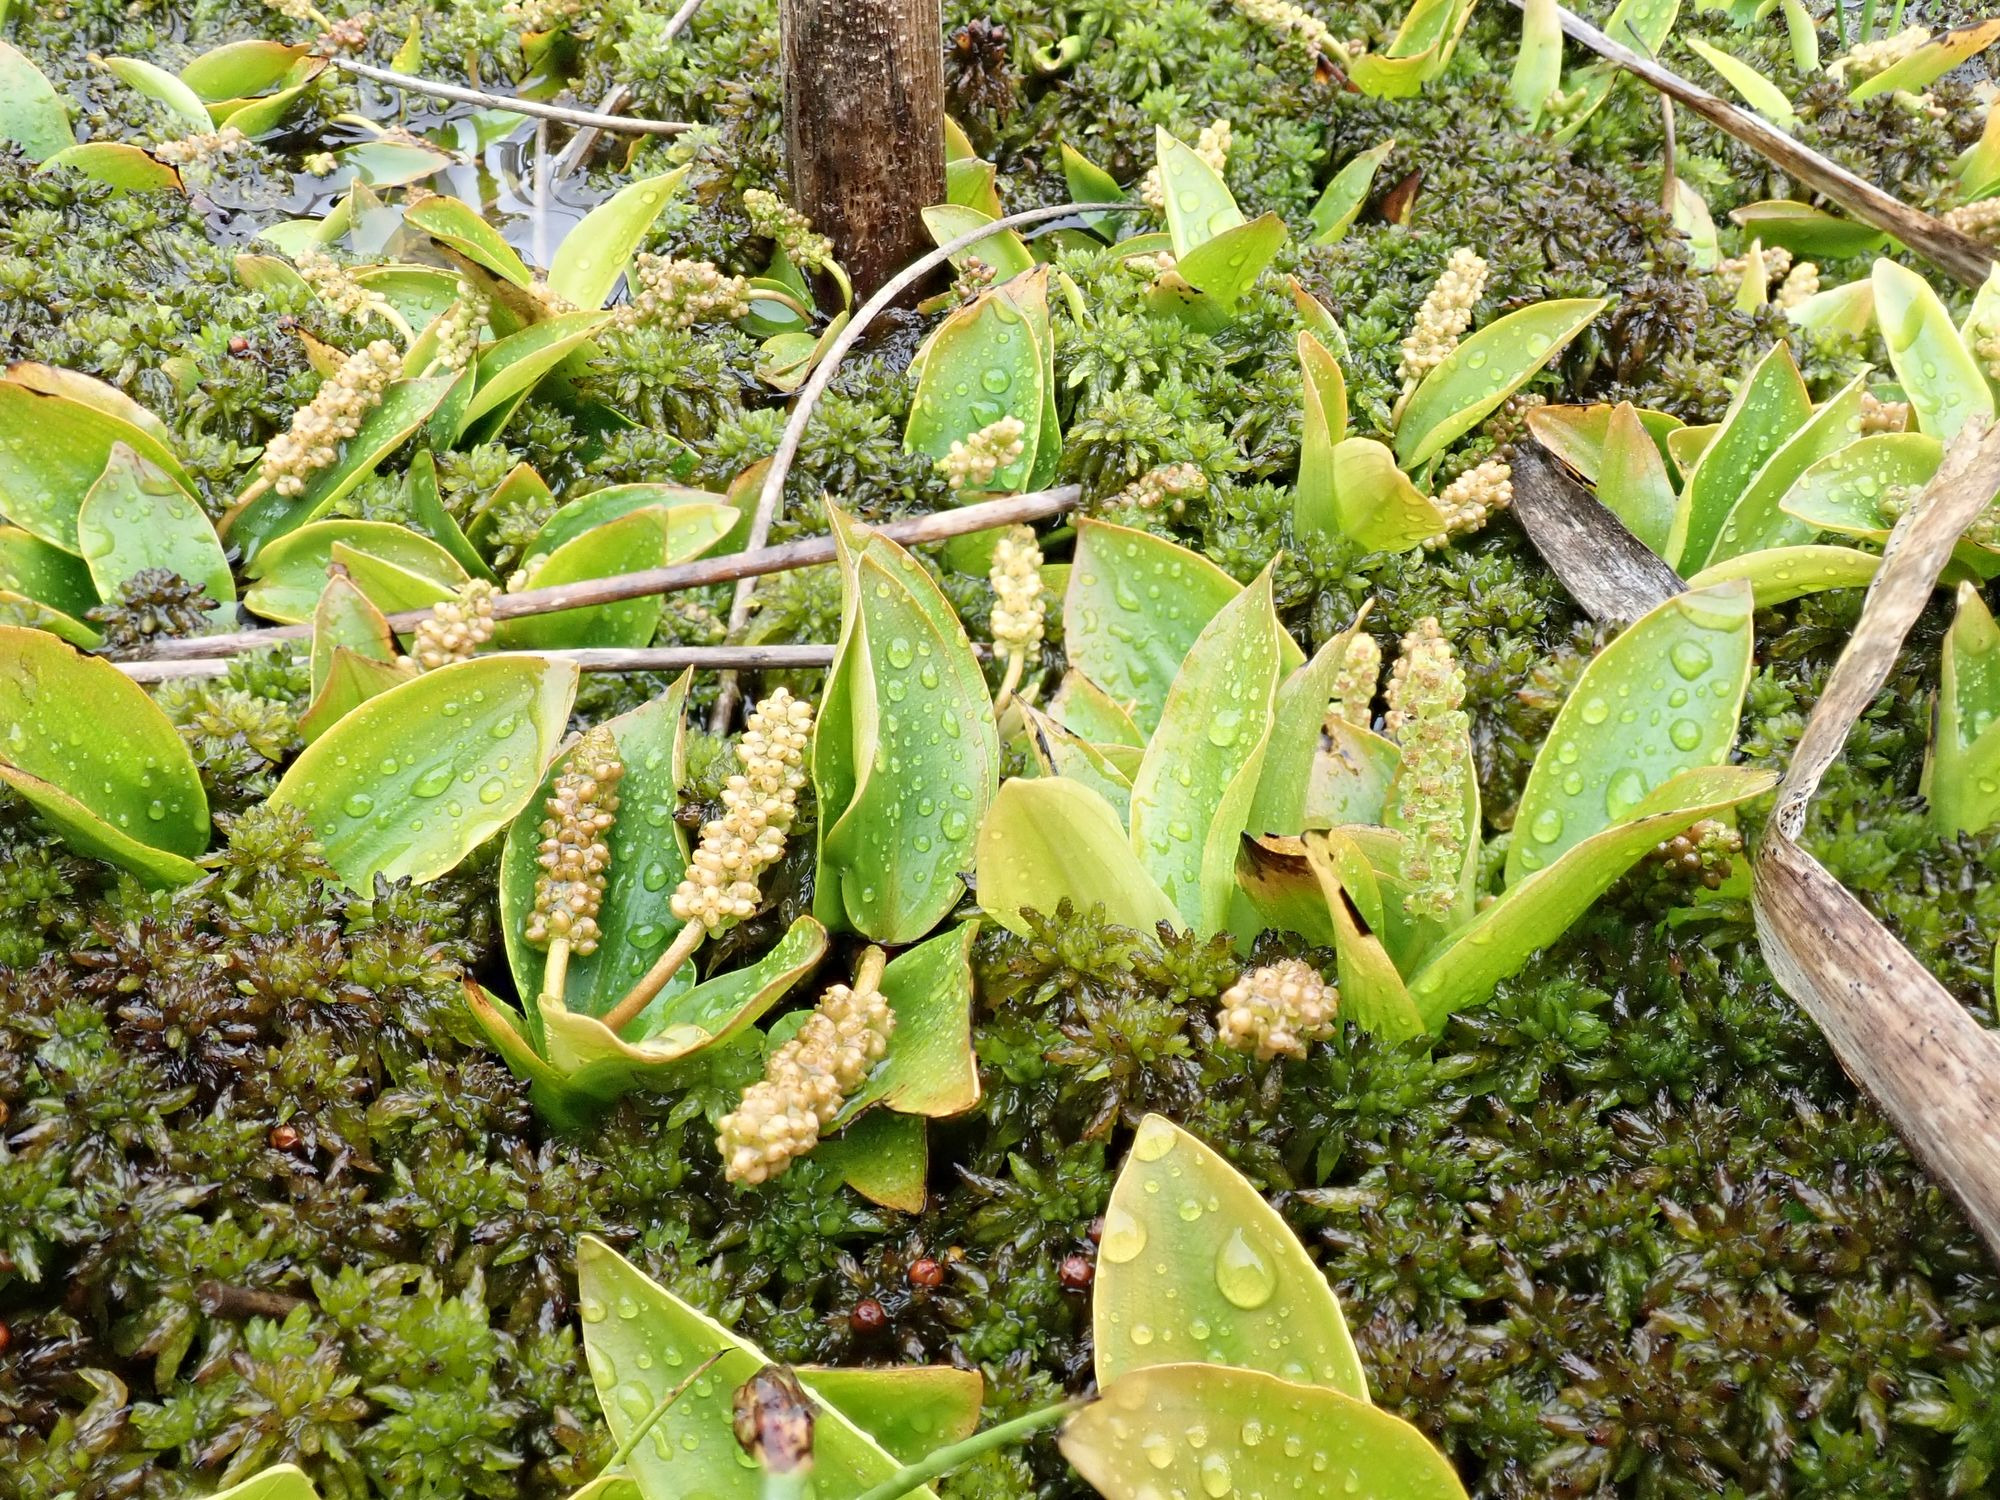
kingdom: Plantae
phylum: Tracheophyta
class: Liliopsida
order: Alismatales
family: Potamogetonaceae
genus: Potamogeton
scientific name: Potamogeton polygonifolius
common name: Aflangbladet vandaks
